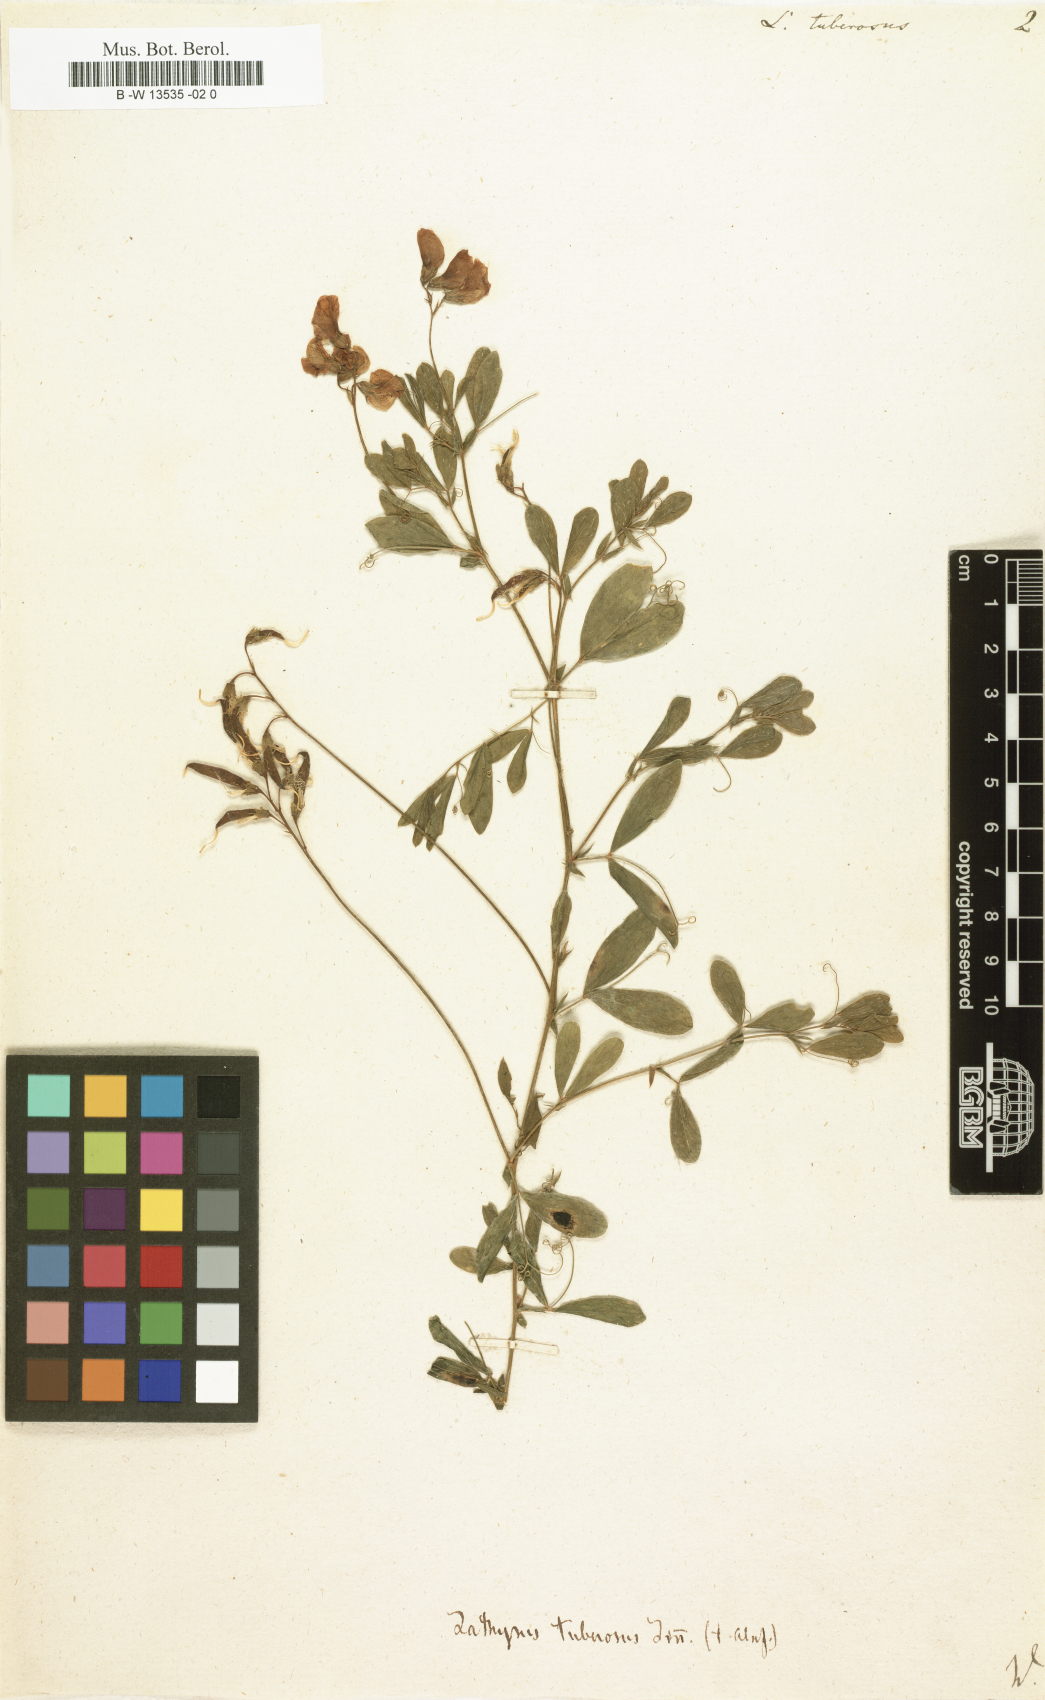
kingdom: Plantae
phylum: Tracheophyta
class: Magnoliopsida
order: Fabales
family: Fabaceae
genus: Lathyrus
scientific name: Lathyrus tuberosus
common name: Tuberous pea
